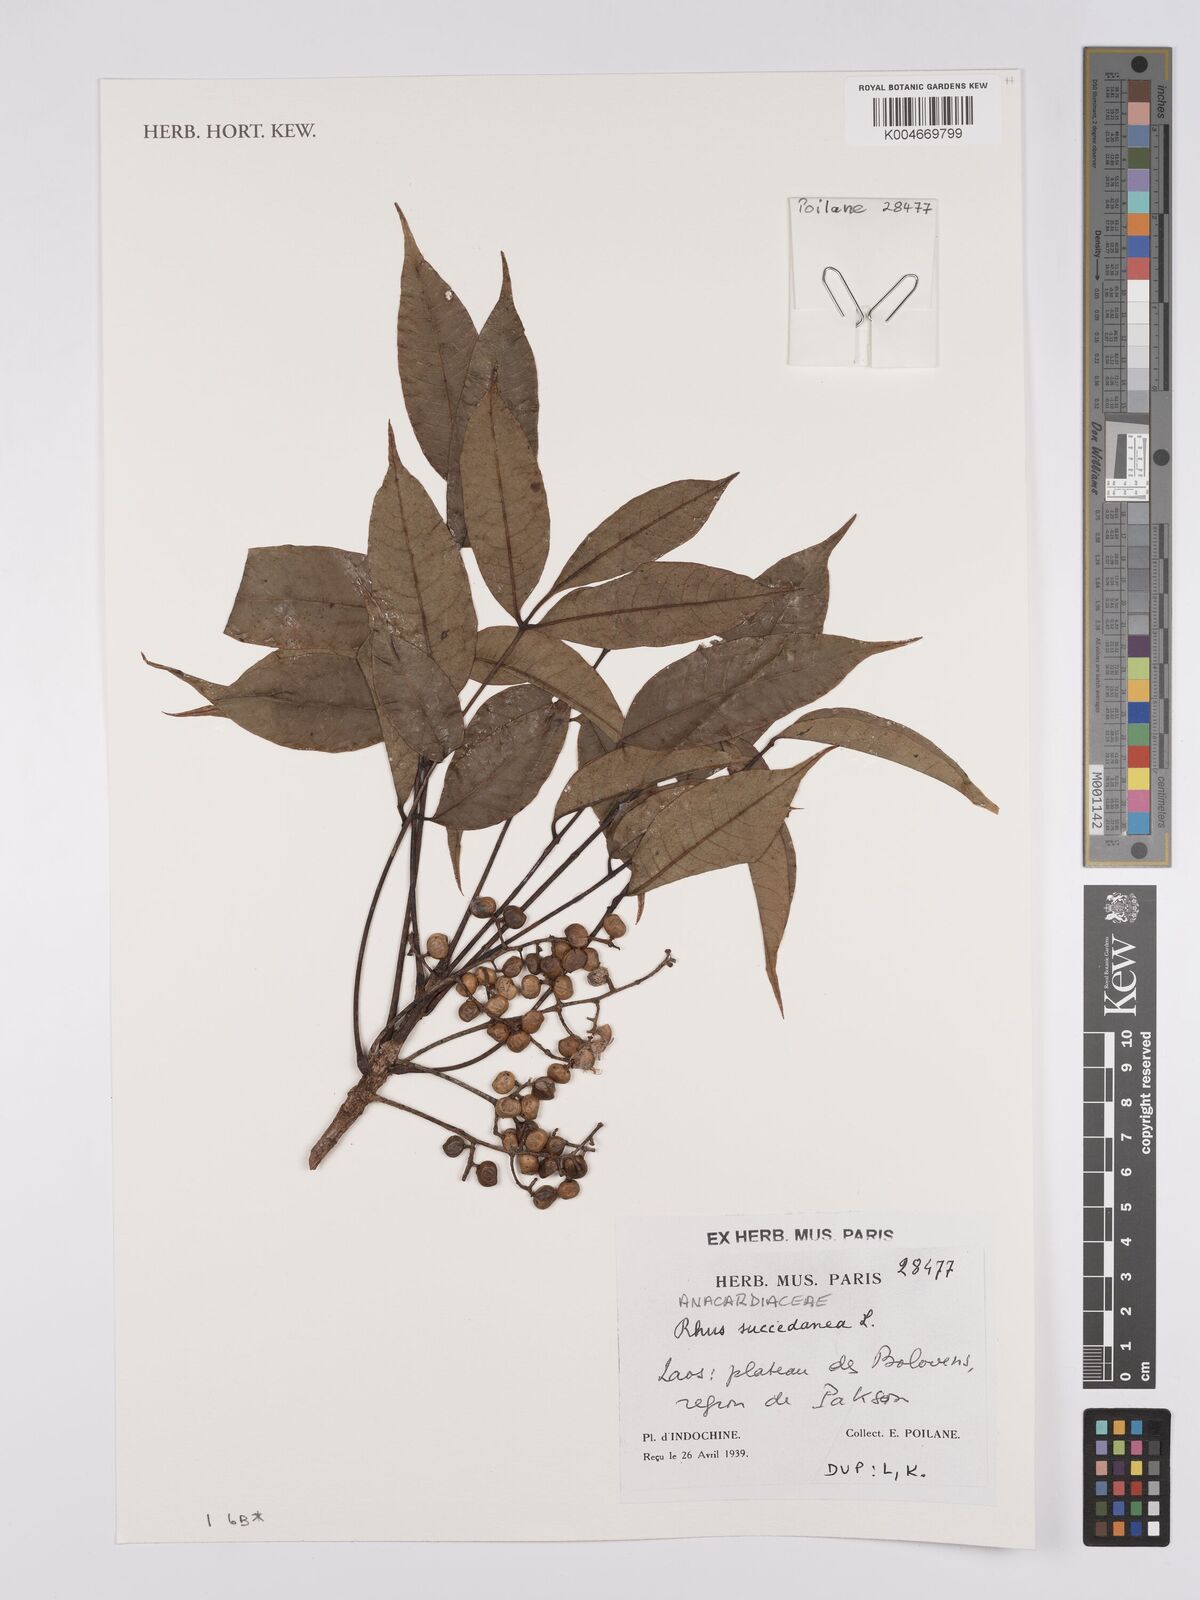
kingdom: Plantae
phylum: Tracheophyta
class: Magnoliopsida
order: Sapindales
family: Anacardiaceae
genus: Toxicodendron
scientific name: Toxicodendron succedaneum
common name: Wax tree
